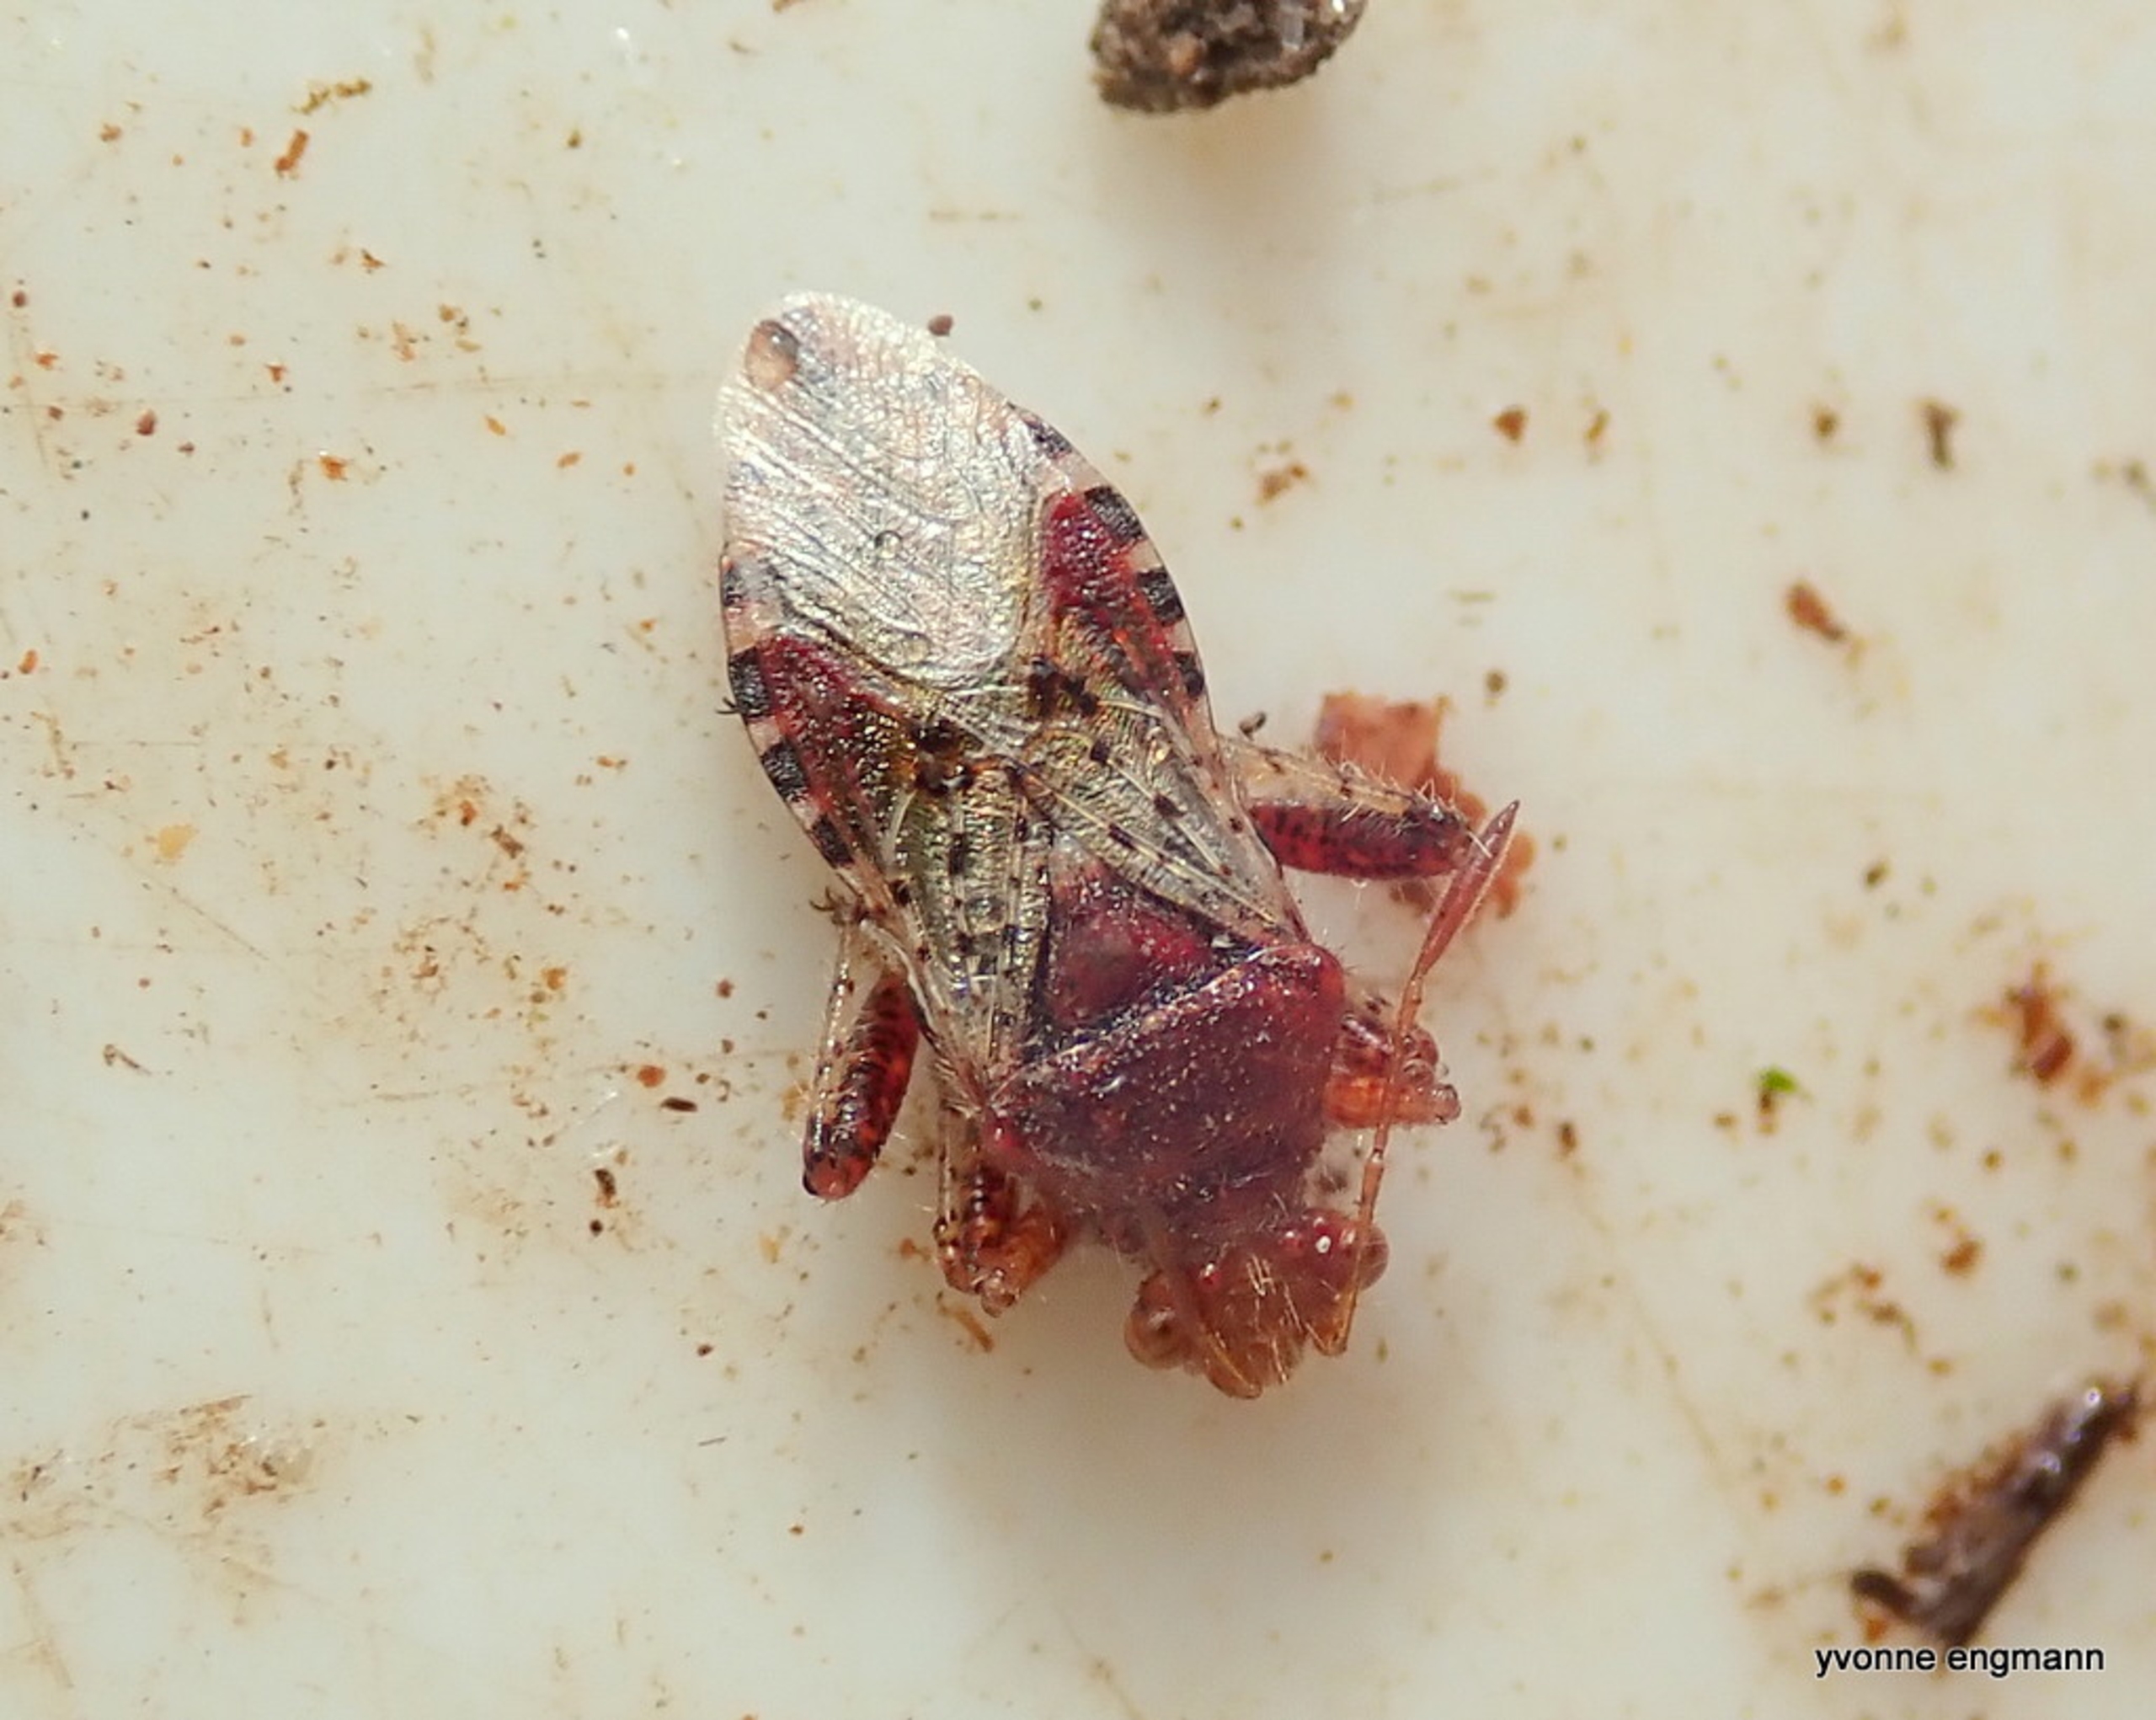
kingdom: Animalia
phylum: Arthropoda
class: Insecta
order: Hemiptera
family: Rhopalidae
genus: Rhopalus
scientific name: Rhopalus subrufus
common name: Skovkanttæge
